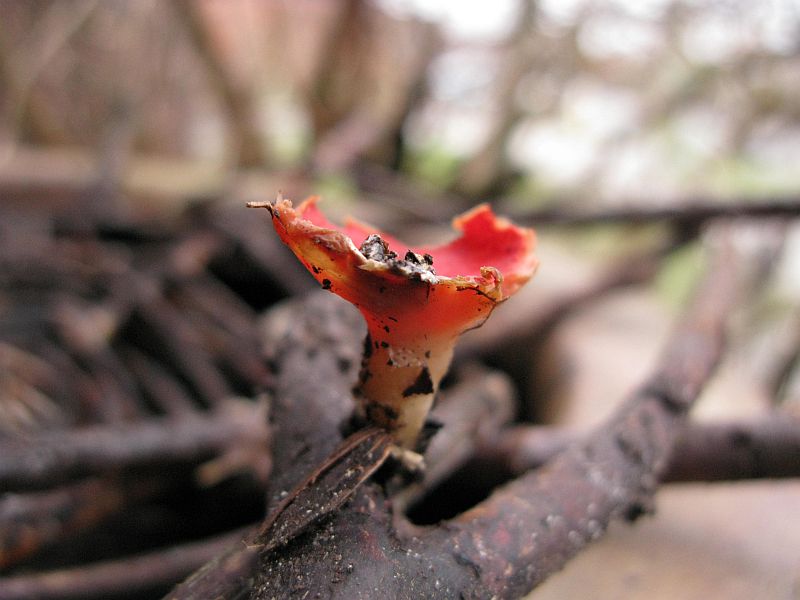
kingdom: Fungi
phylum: Ascomycota
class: Pezizomycetes
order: Pezizales
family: Sarcoscyphaceae
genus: Sarcoscypha
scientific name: Sarcoscypha coccinea
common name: skarlagen-pragtbæger
